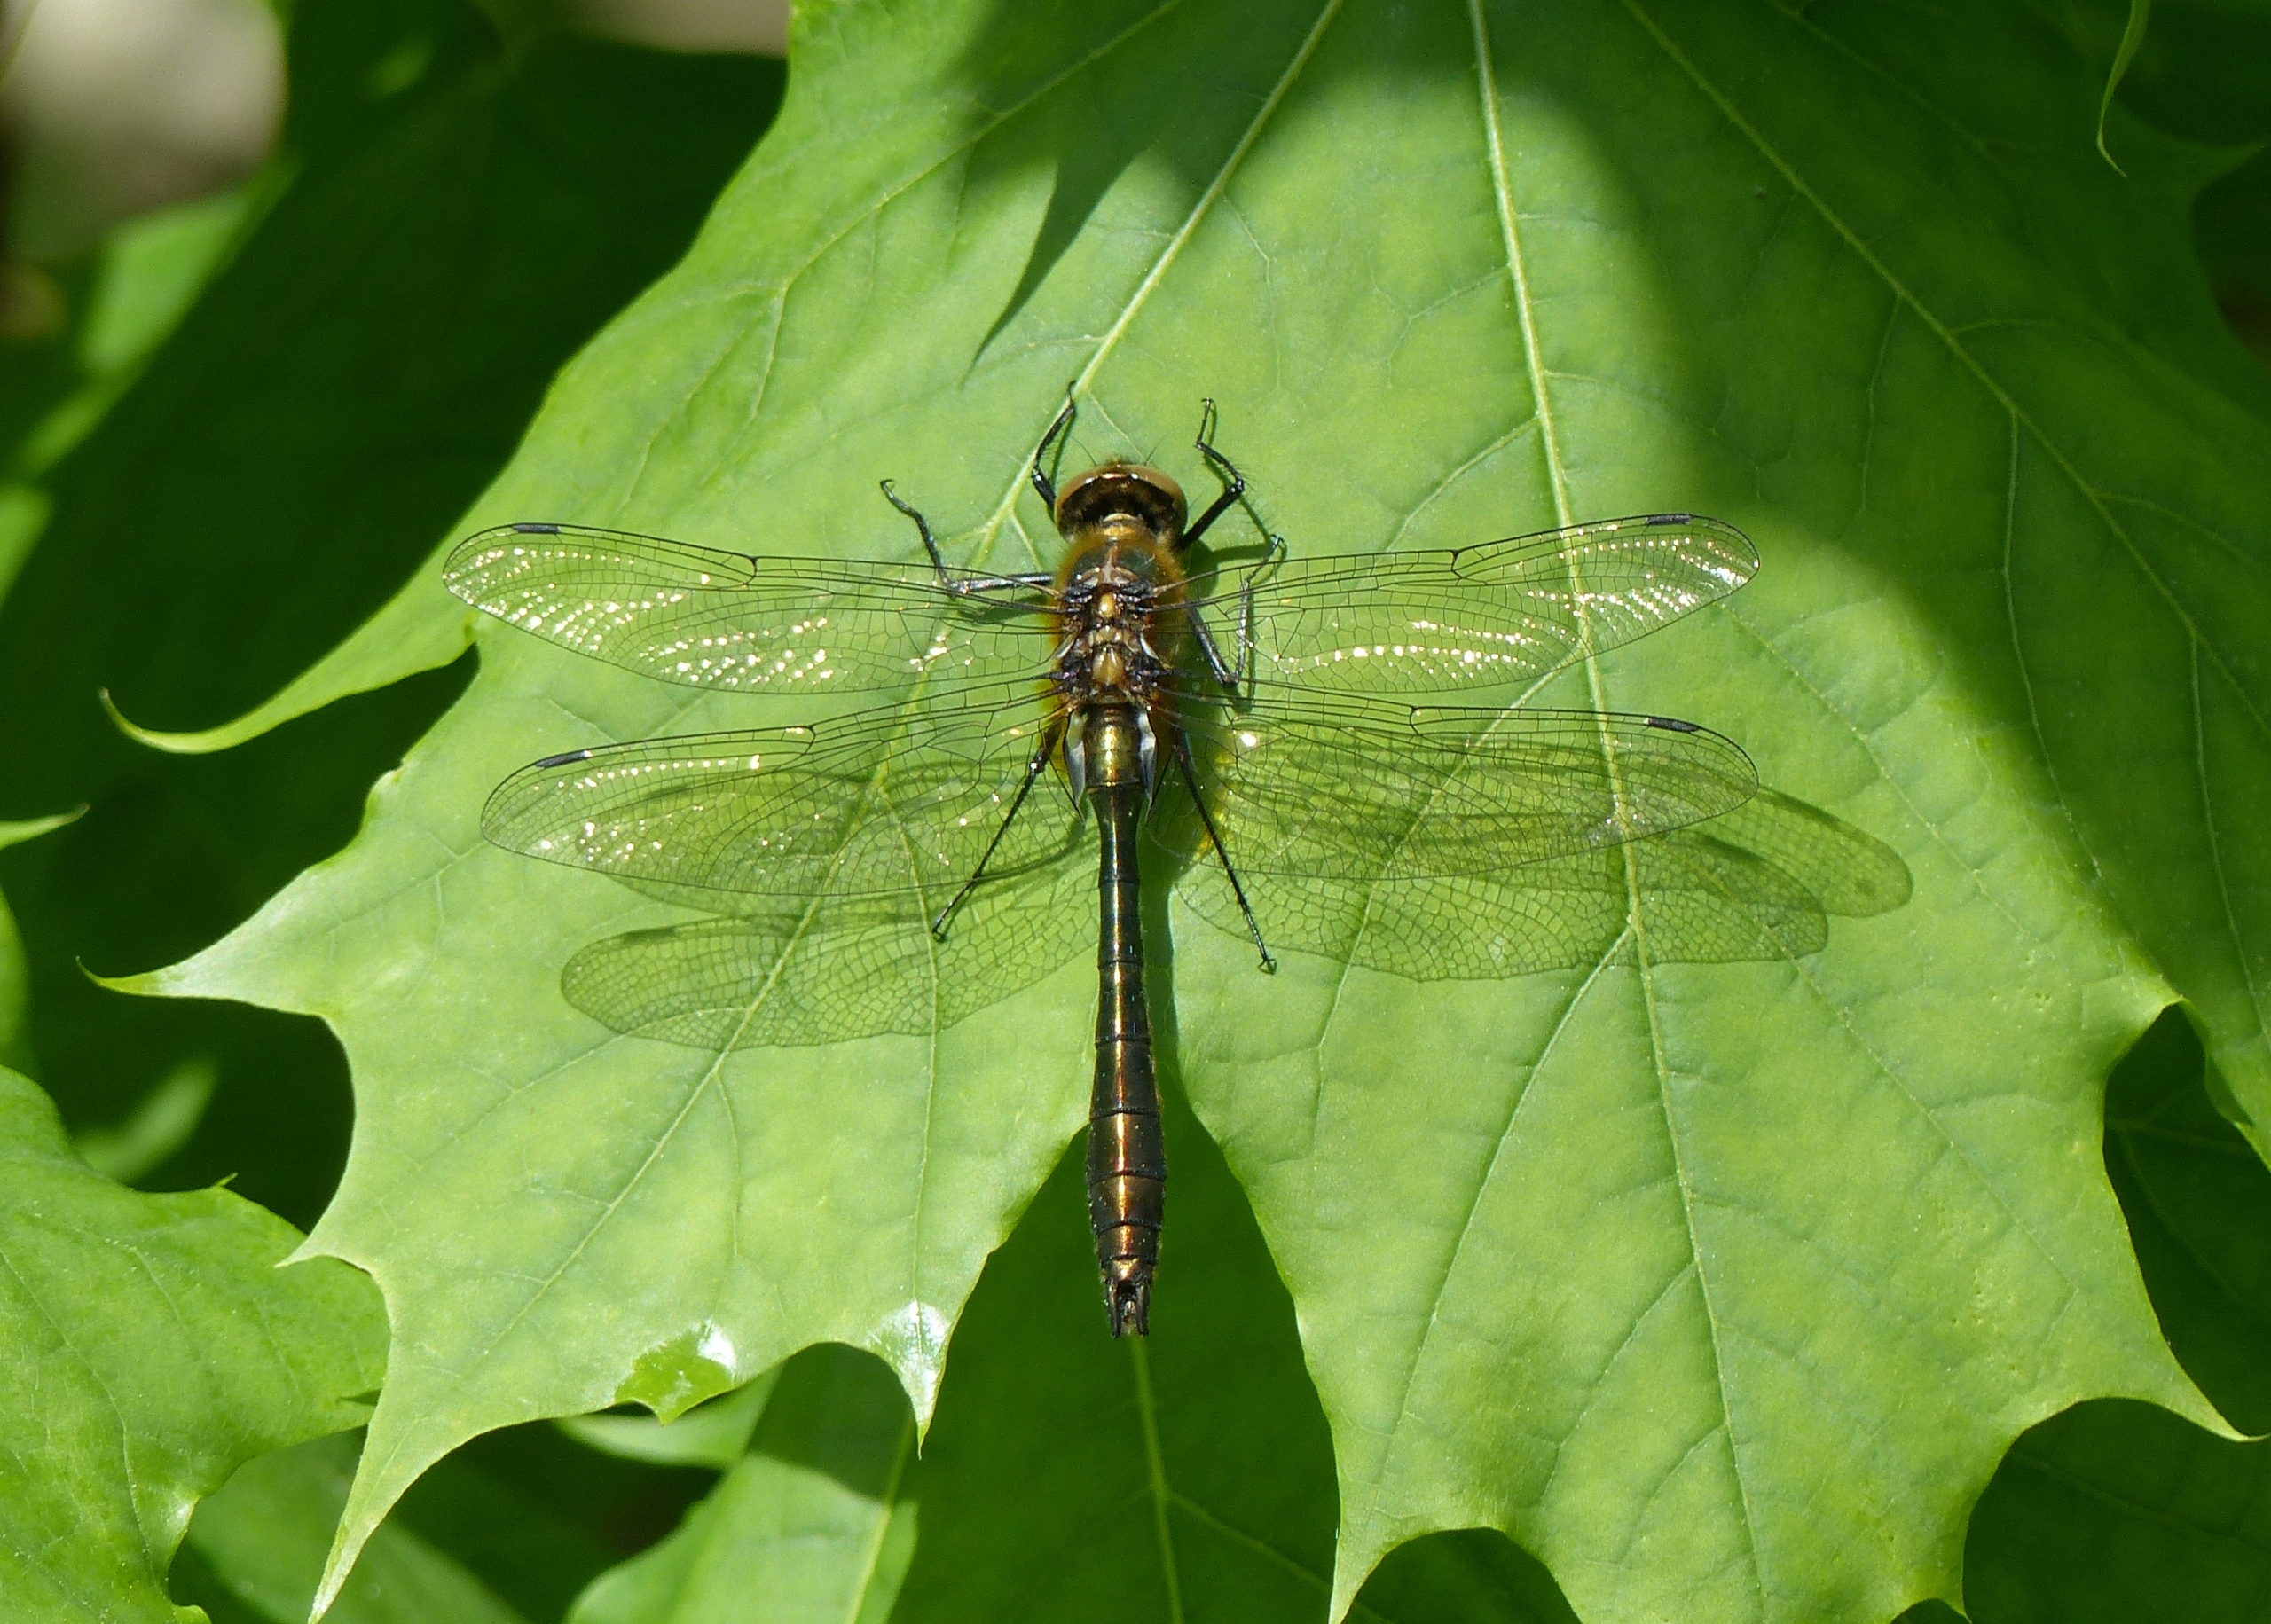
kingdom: Animalia
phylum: Arthropoda
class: Insecta
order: Odonata
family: Corduliidae
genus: Cordulia
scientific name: Cordulia aenea
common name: Grøn smaragdlibel
